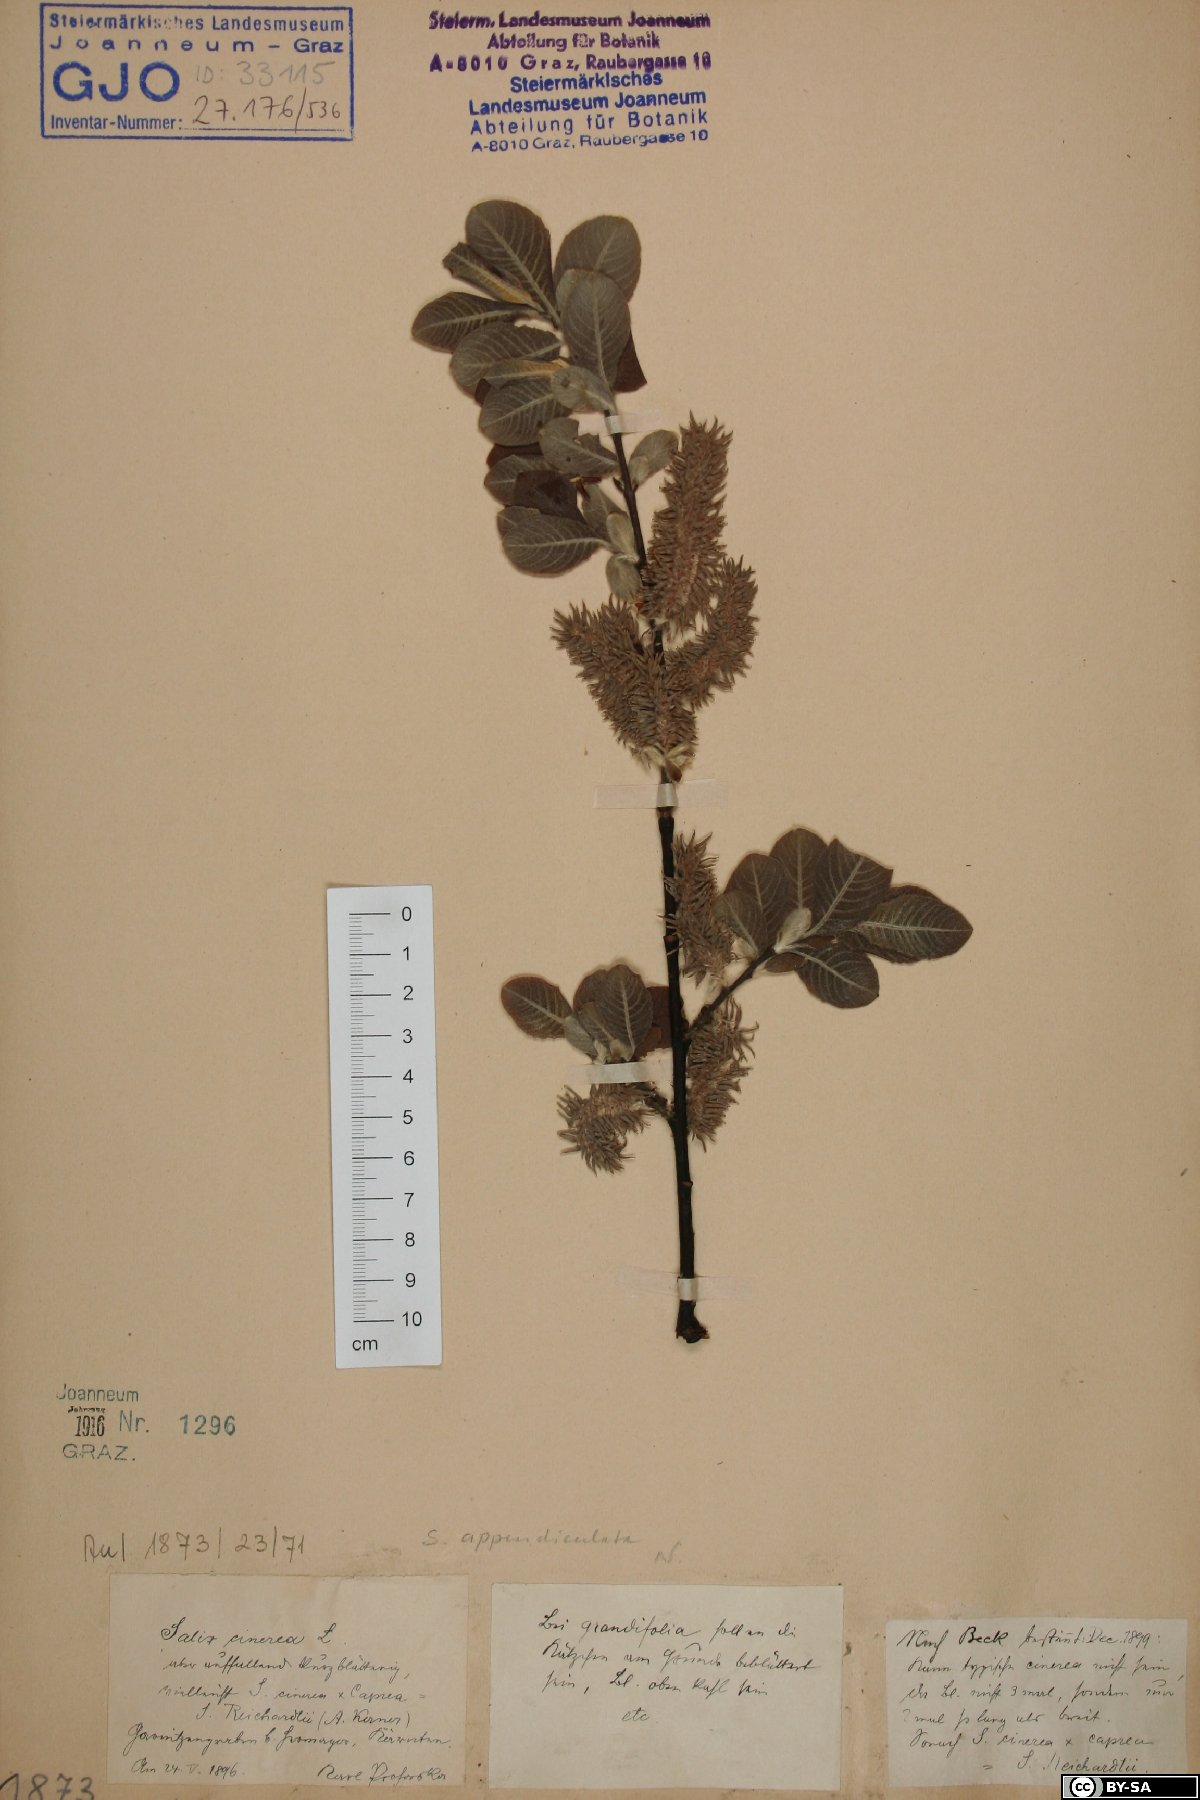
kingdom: Plantae
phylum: Tracheophyta
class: Magnoliopsida
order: Malpighiales
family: Salicaceae
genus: Salix
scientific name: Salix appendiculata
